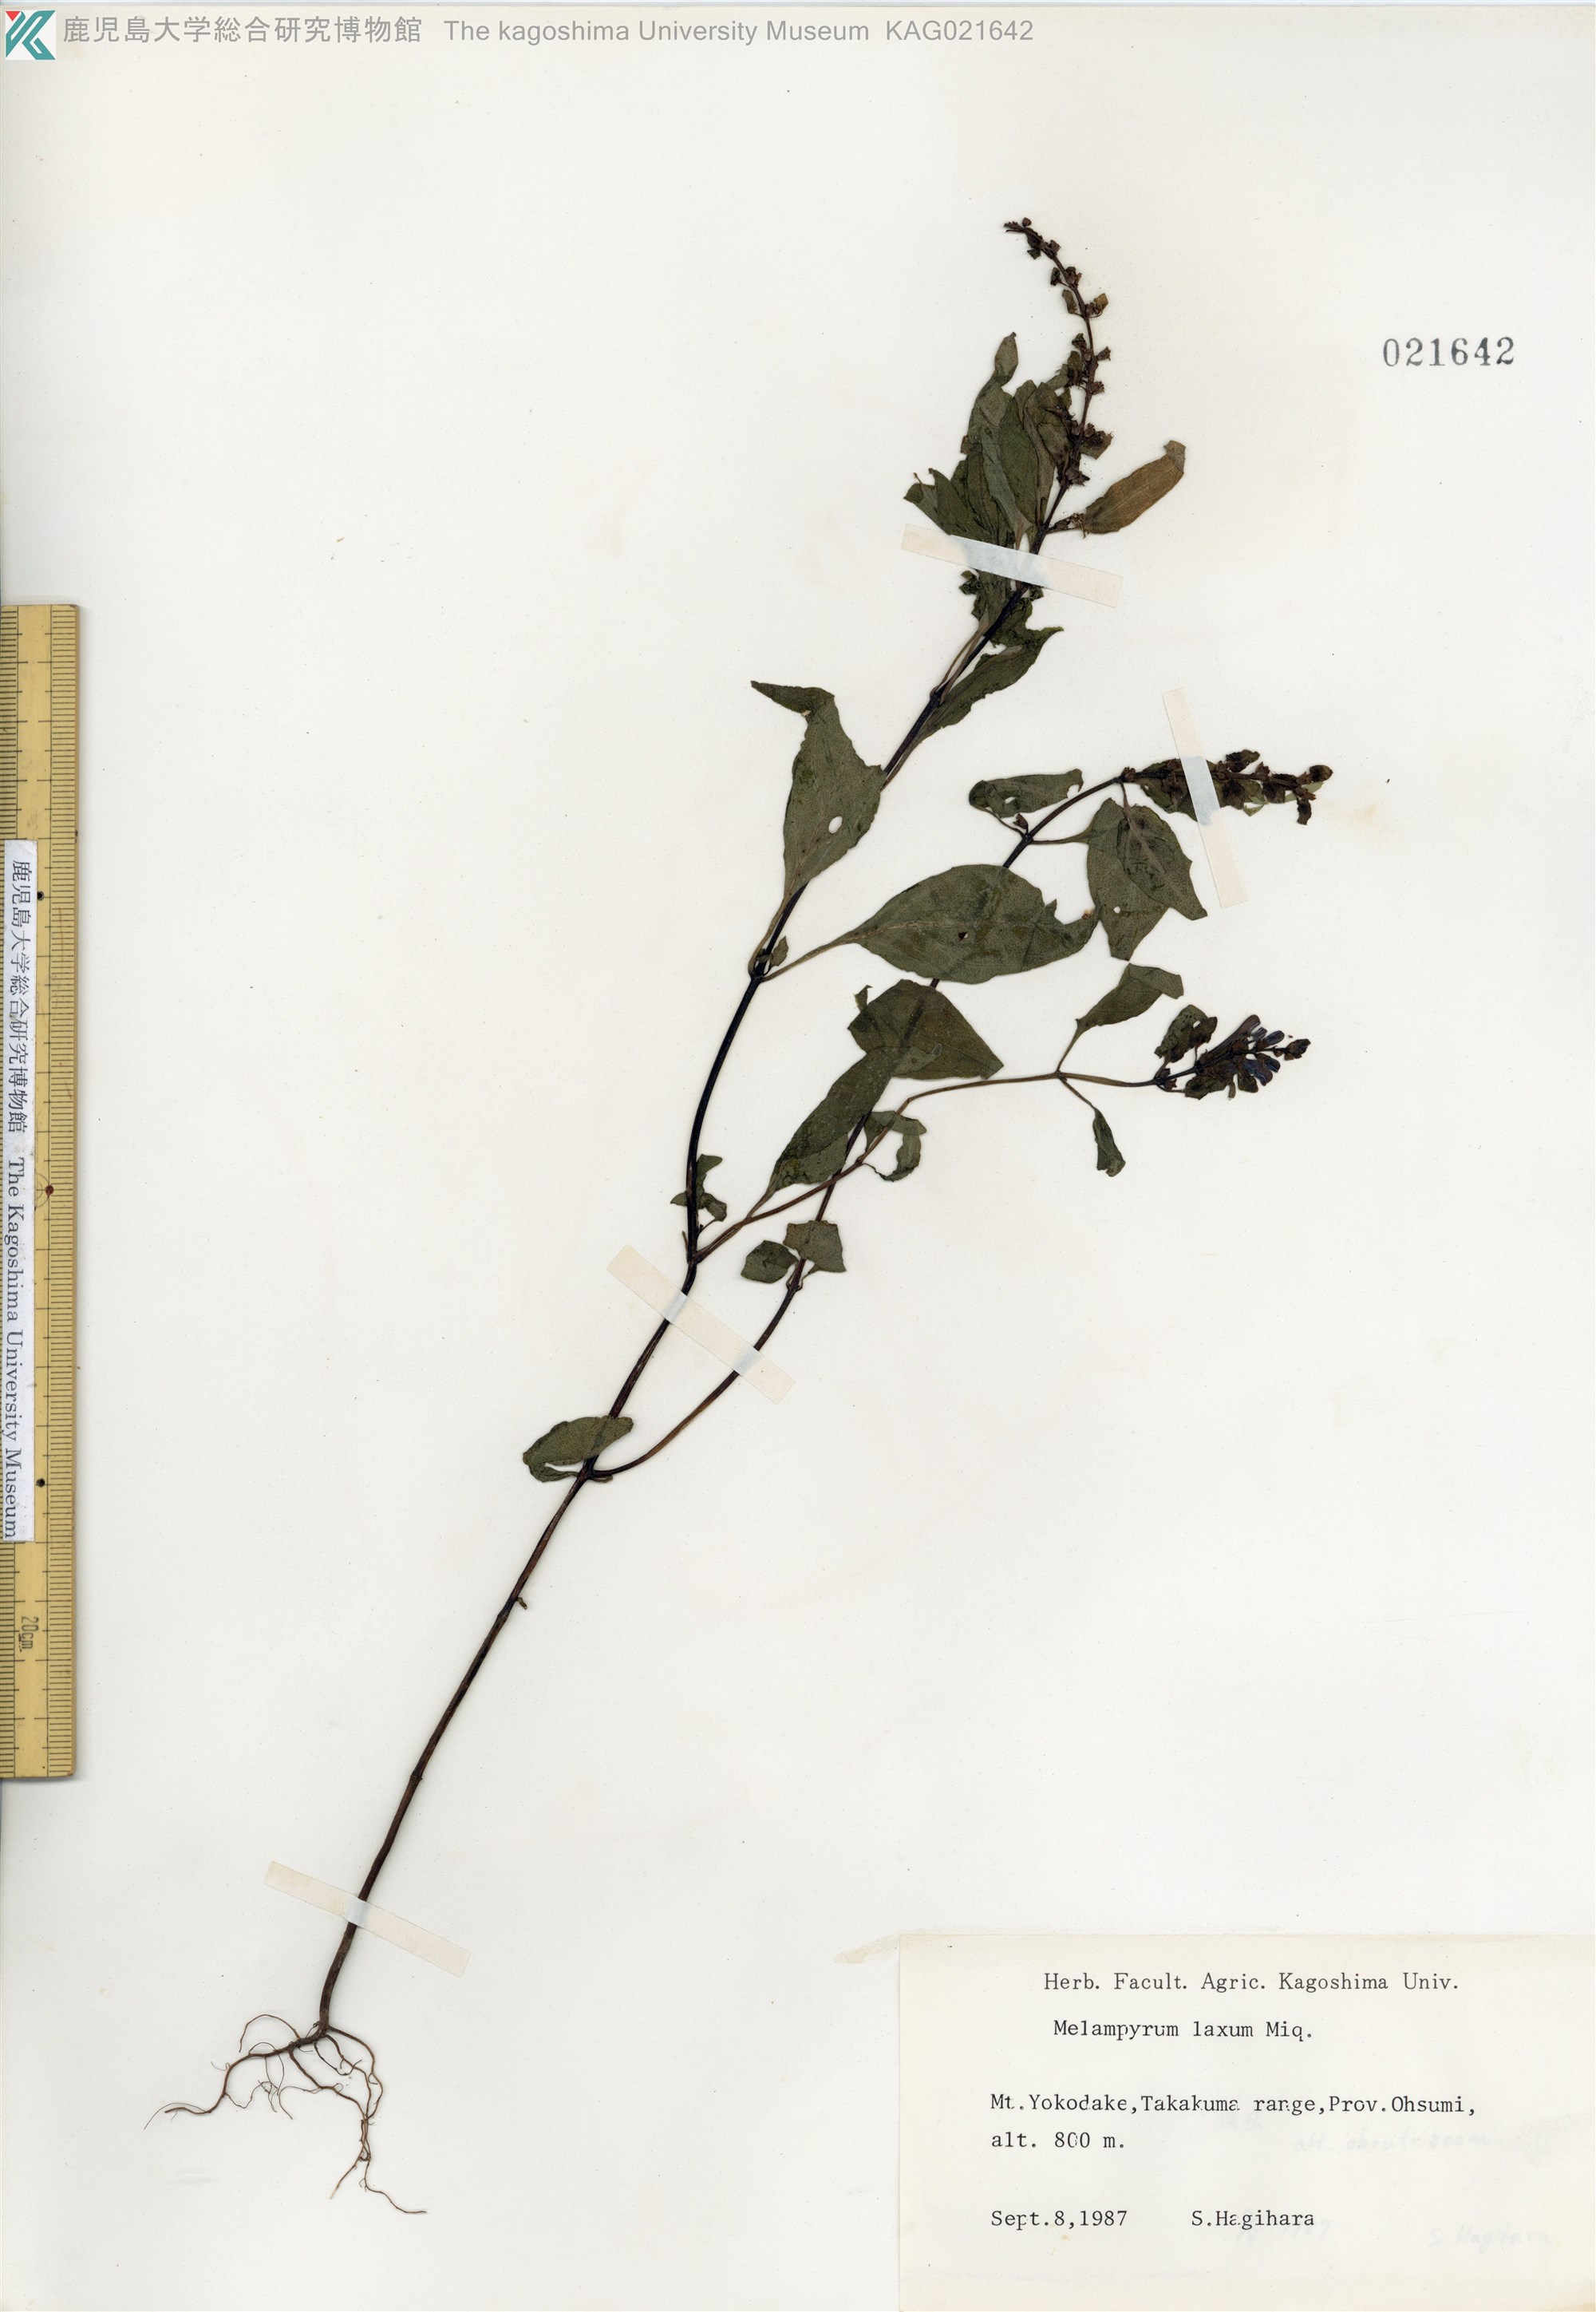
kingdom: Plantae
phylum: Tracheophyta
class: Magnoliopsida
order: Lamiales
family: Orobanchaceae
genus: Melampyrum
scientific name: Melampyrum laxum
